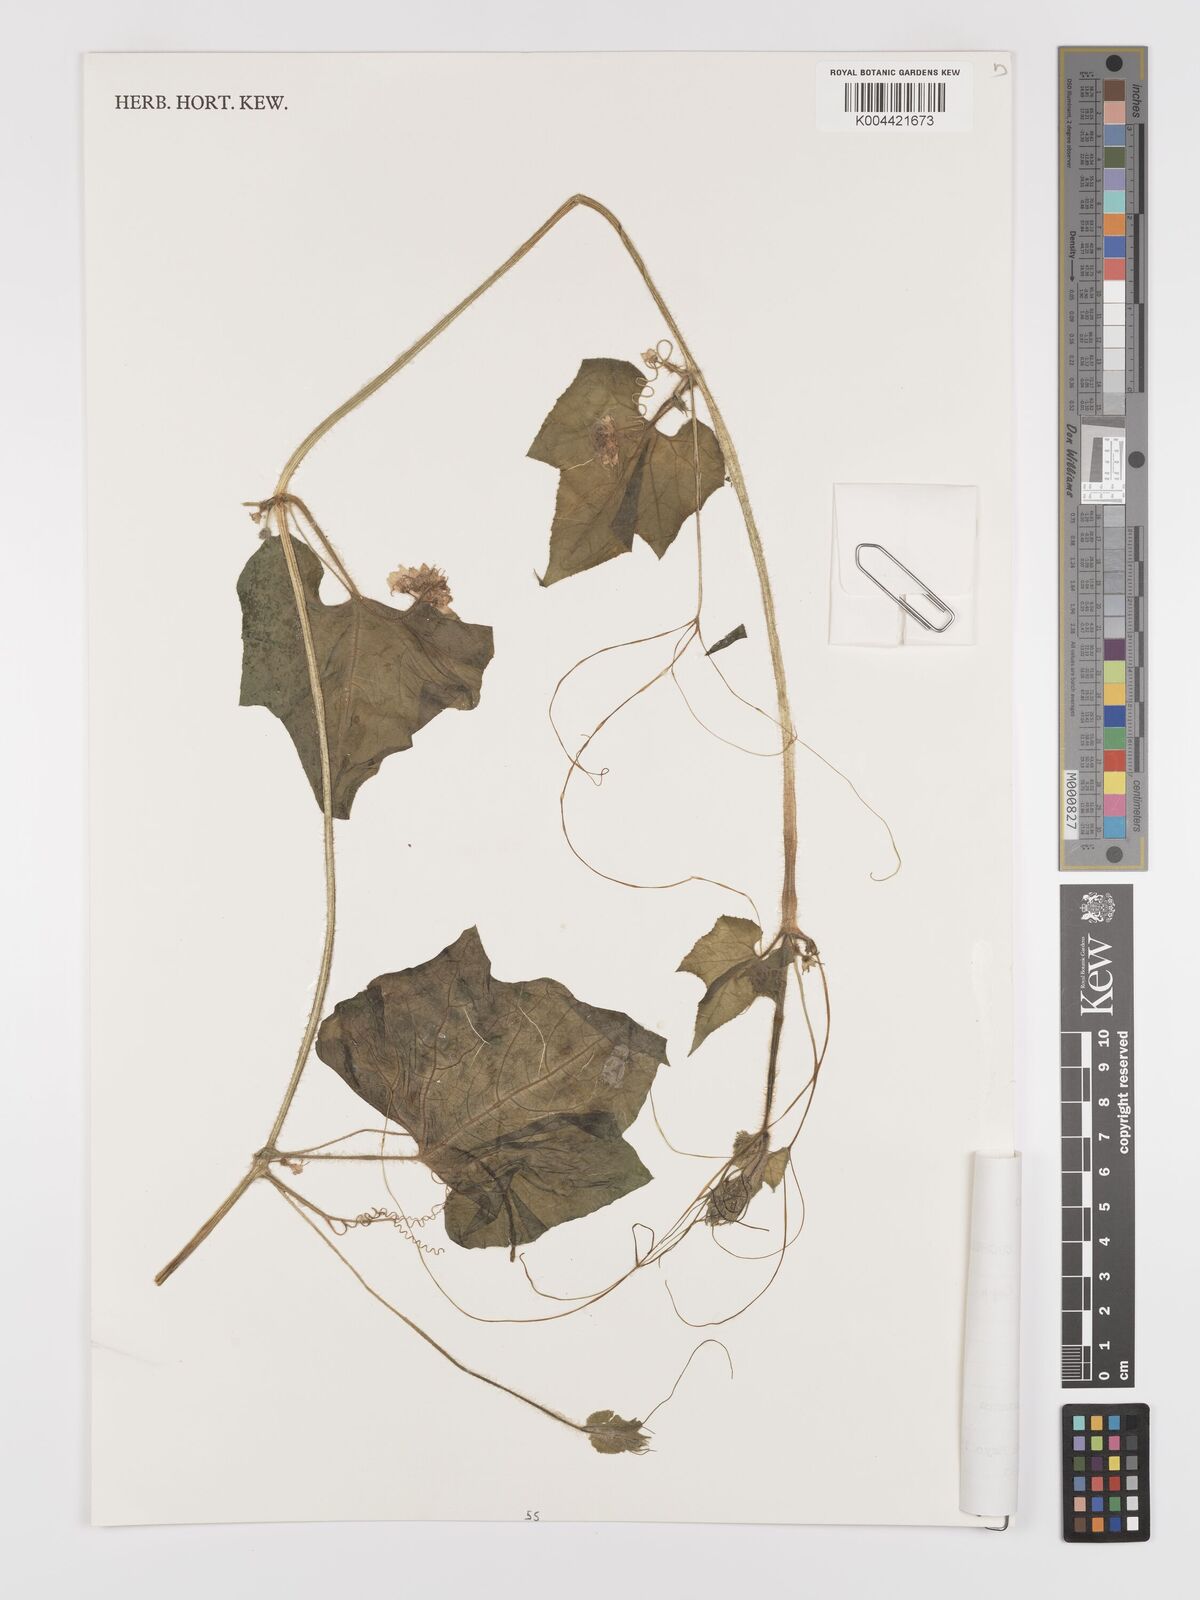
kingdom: Plantae
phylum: Tracheophyta
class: Magnoliopsida
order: Cucurbitales
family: Cucurbitaceae
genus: Sicyos
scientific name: Sicyos longisetosus
